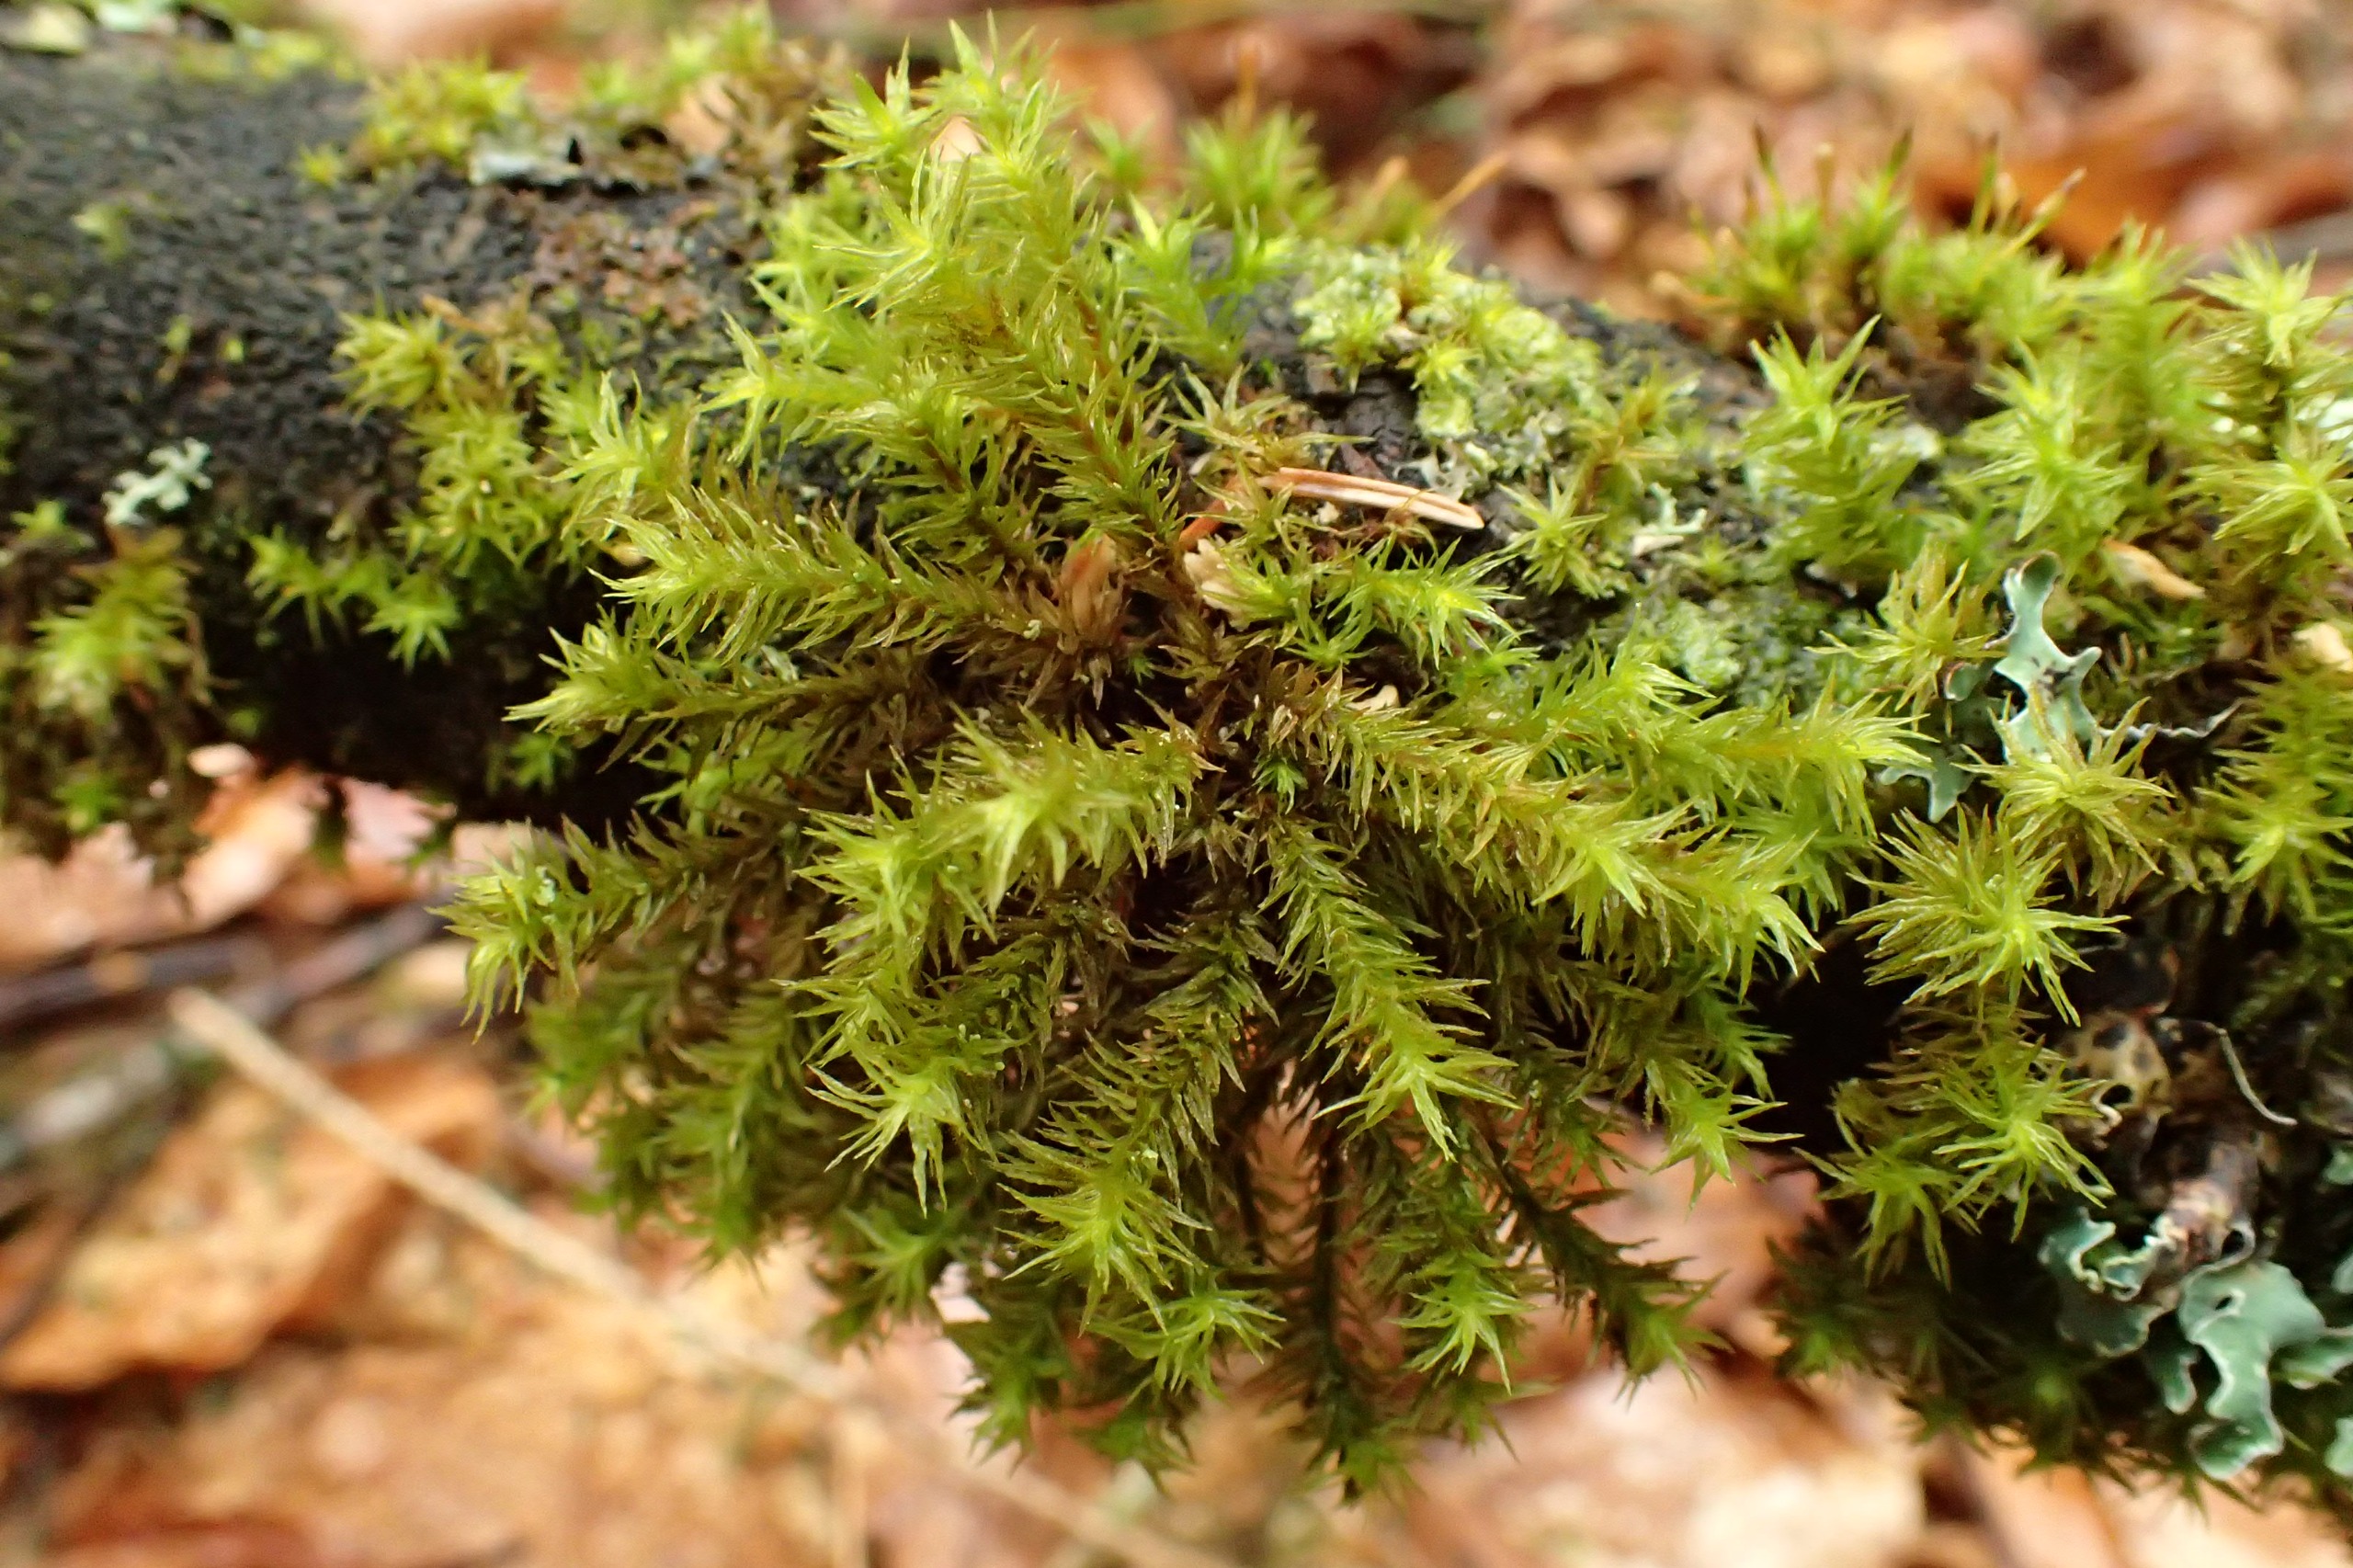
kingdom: Plantae
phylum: Bryophyta
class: Bryopsida
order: Orthotrichales
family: Orthotrichaceae
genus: Pulvigera
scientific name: Pulvigera lyellii
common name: Stor furehætte
